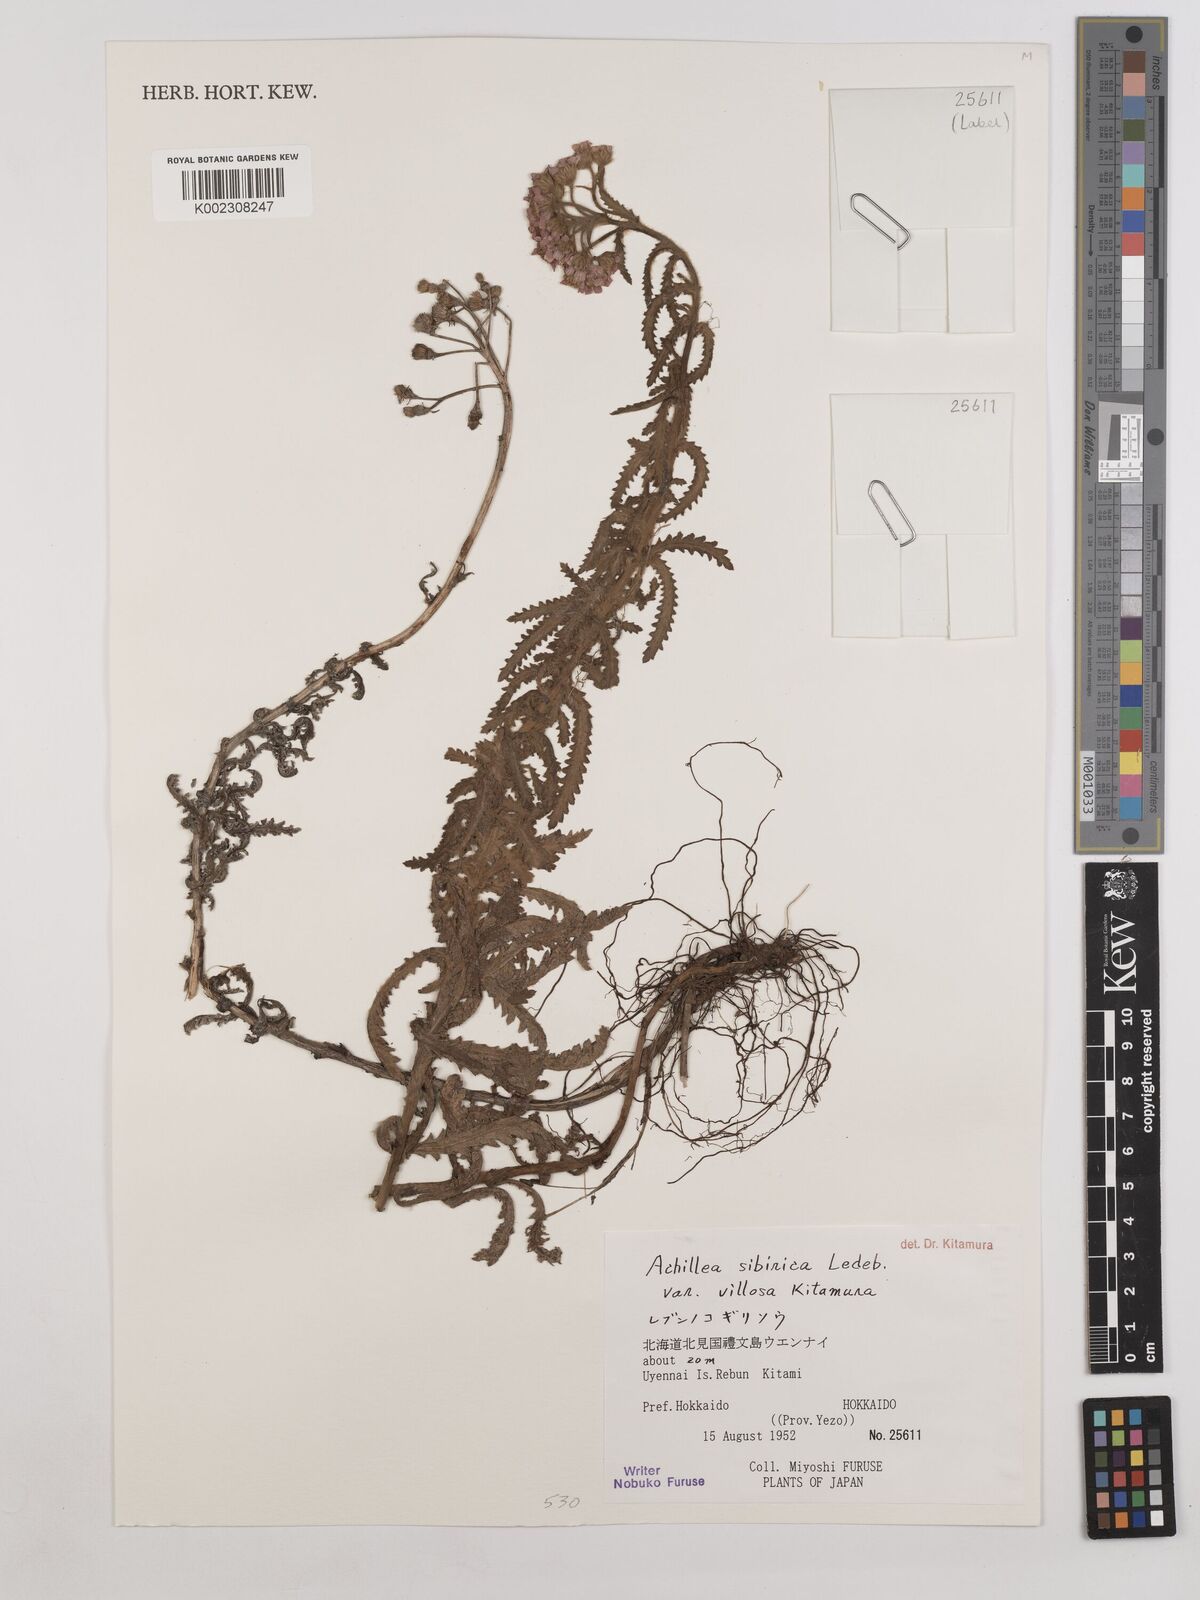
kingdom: Plantae
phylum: Tracheophyta
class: Magnoliopsida
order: Asterales
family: Asteraceae
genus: Achillea
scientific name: Achillea alpina
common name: Siberian yarrow
